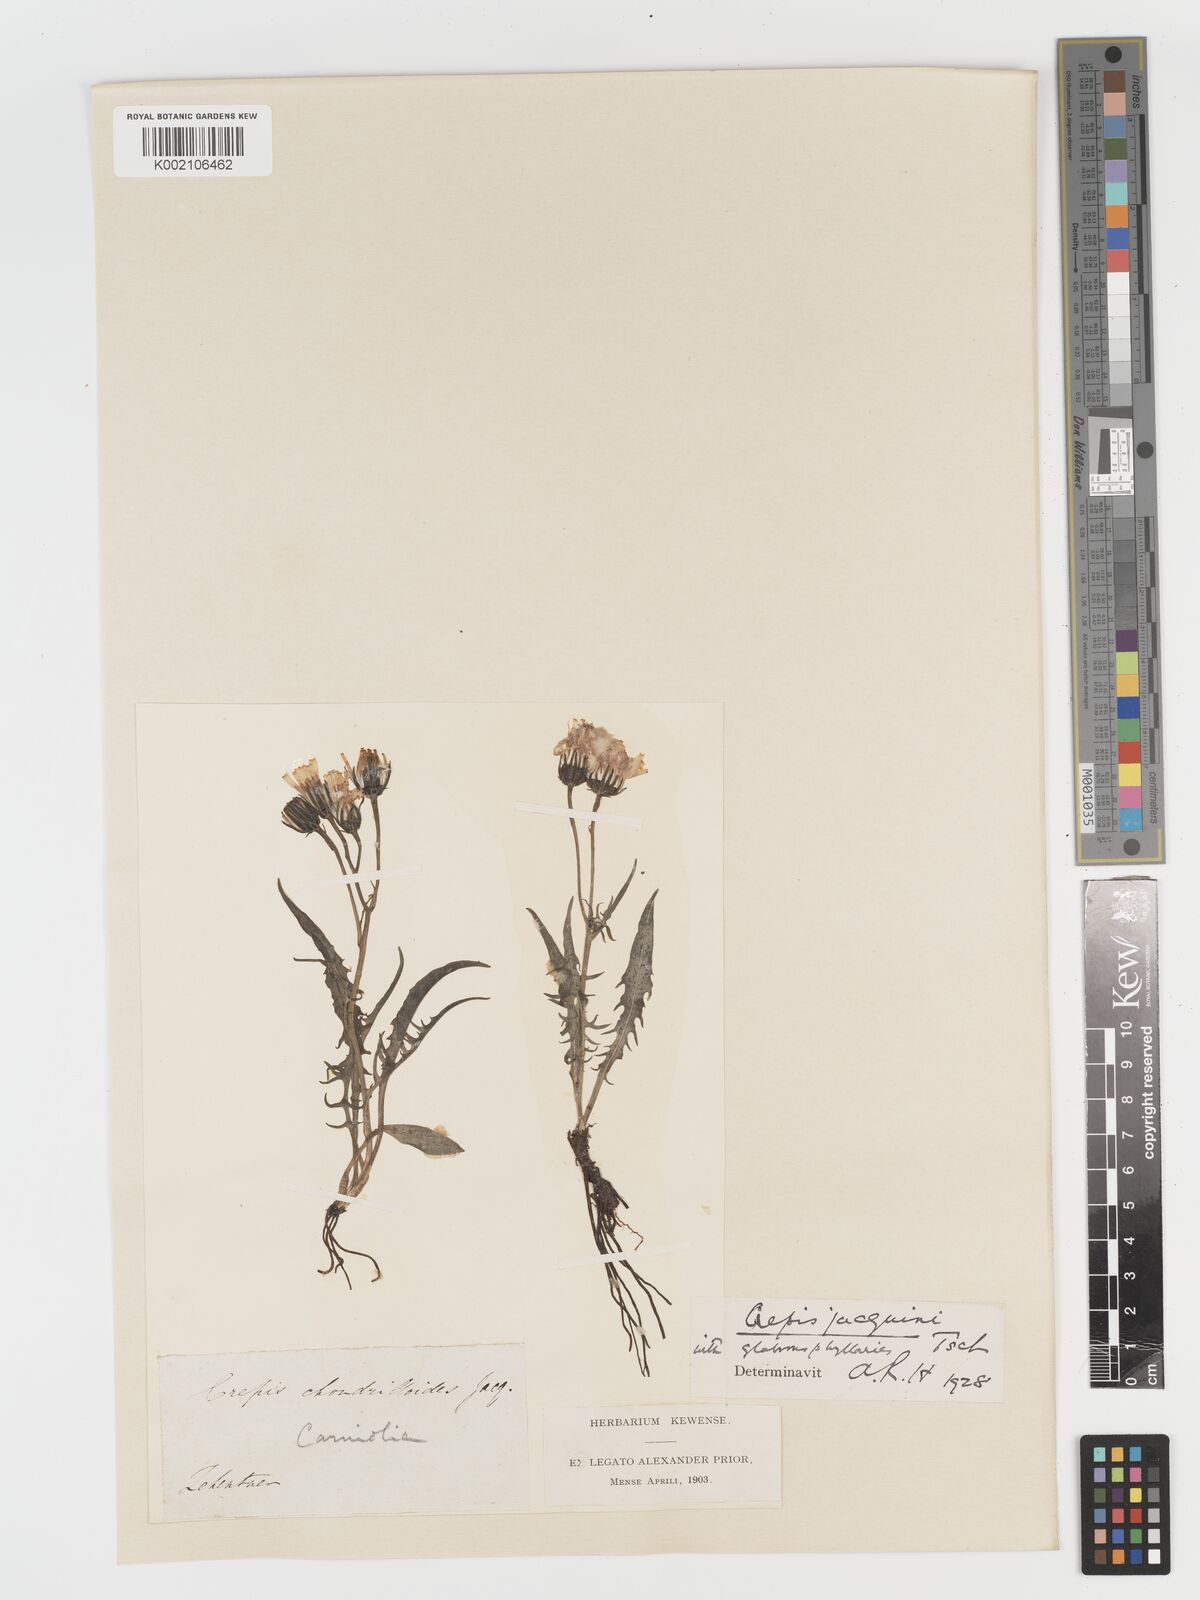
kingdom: Plantae
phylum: Tracheophyta
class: Magnoliopsida
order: Asterales
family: Asteraceae
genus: Crepis
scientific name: Crepis jacquinii
